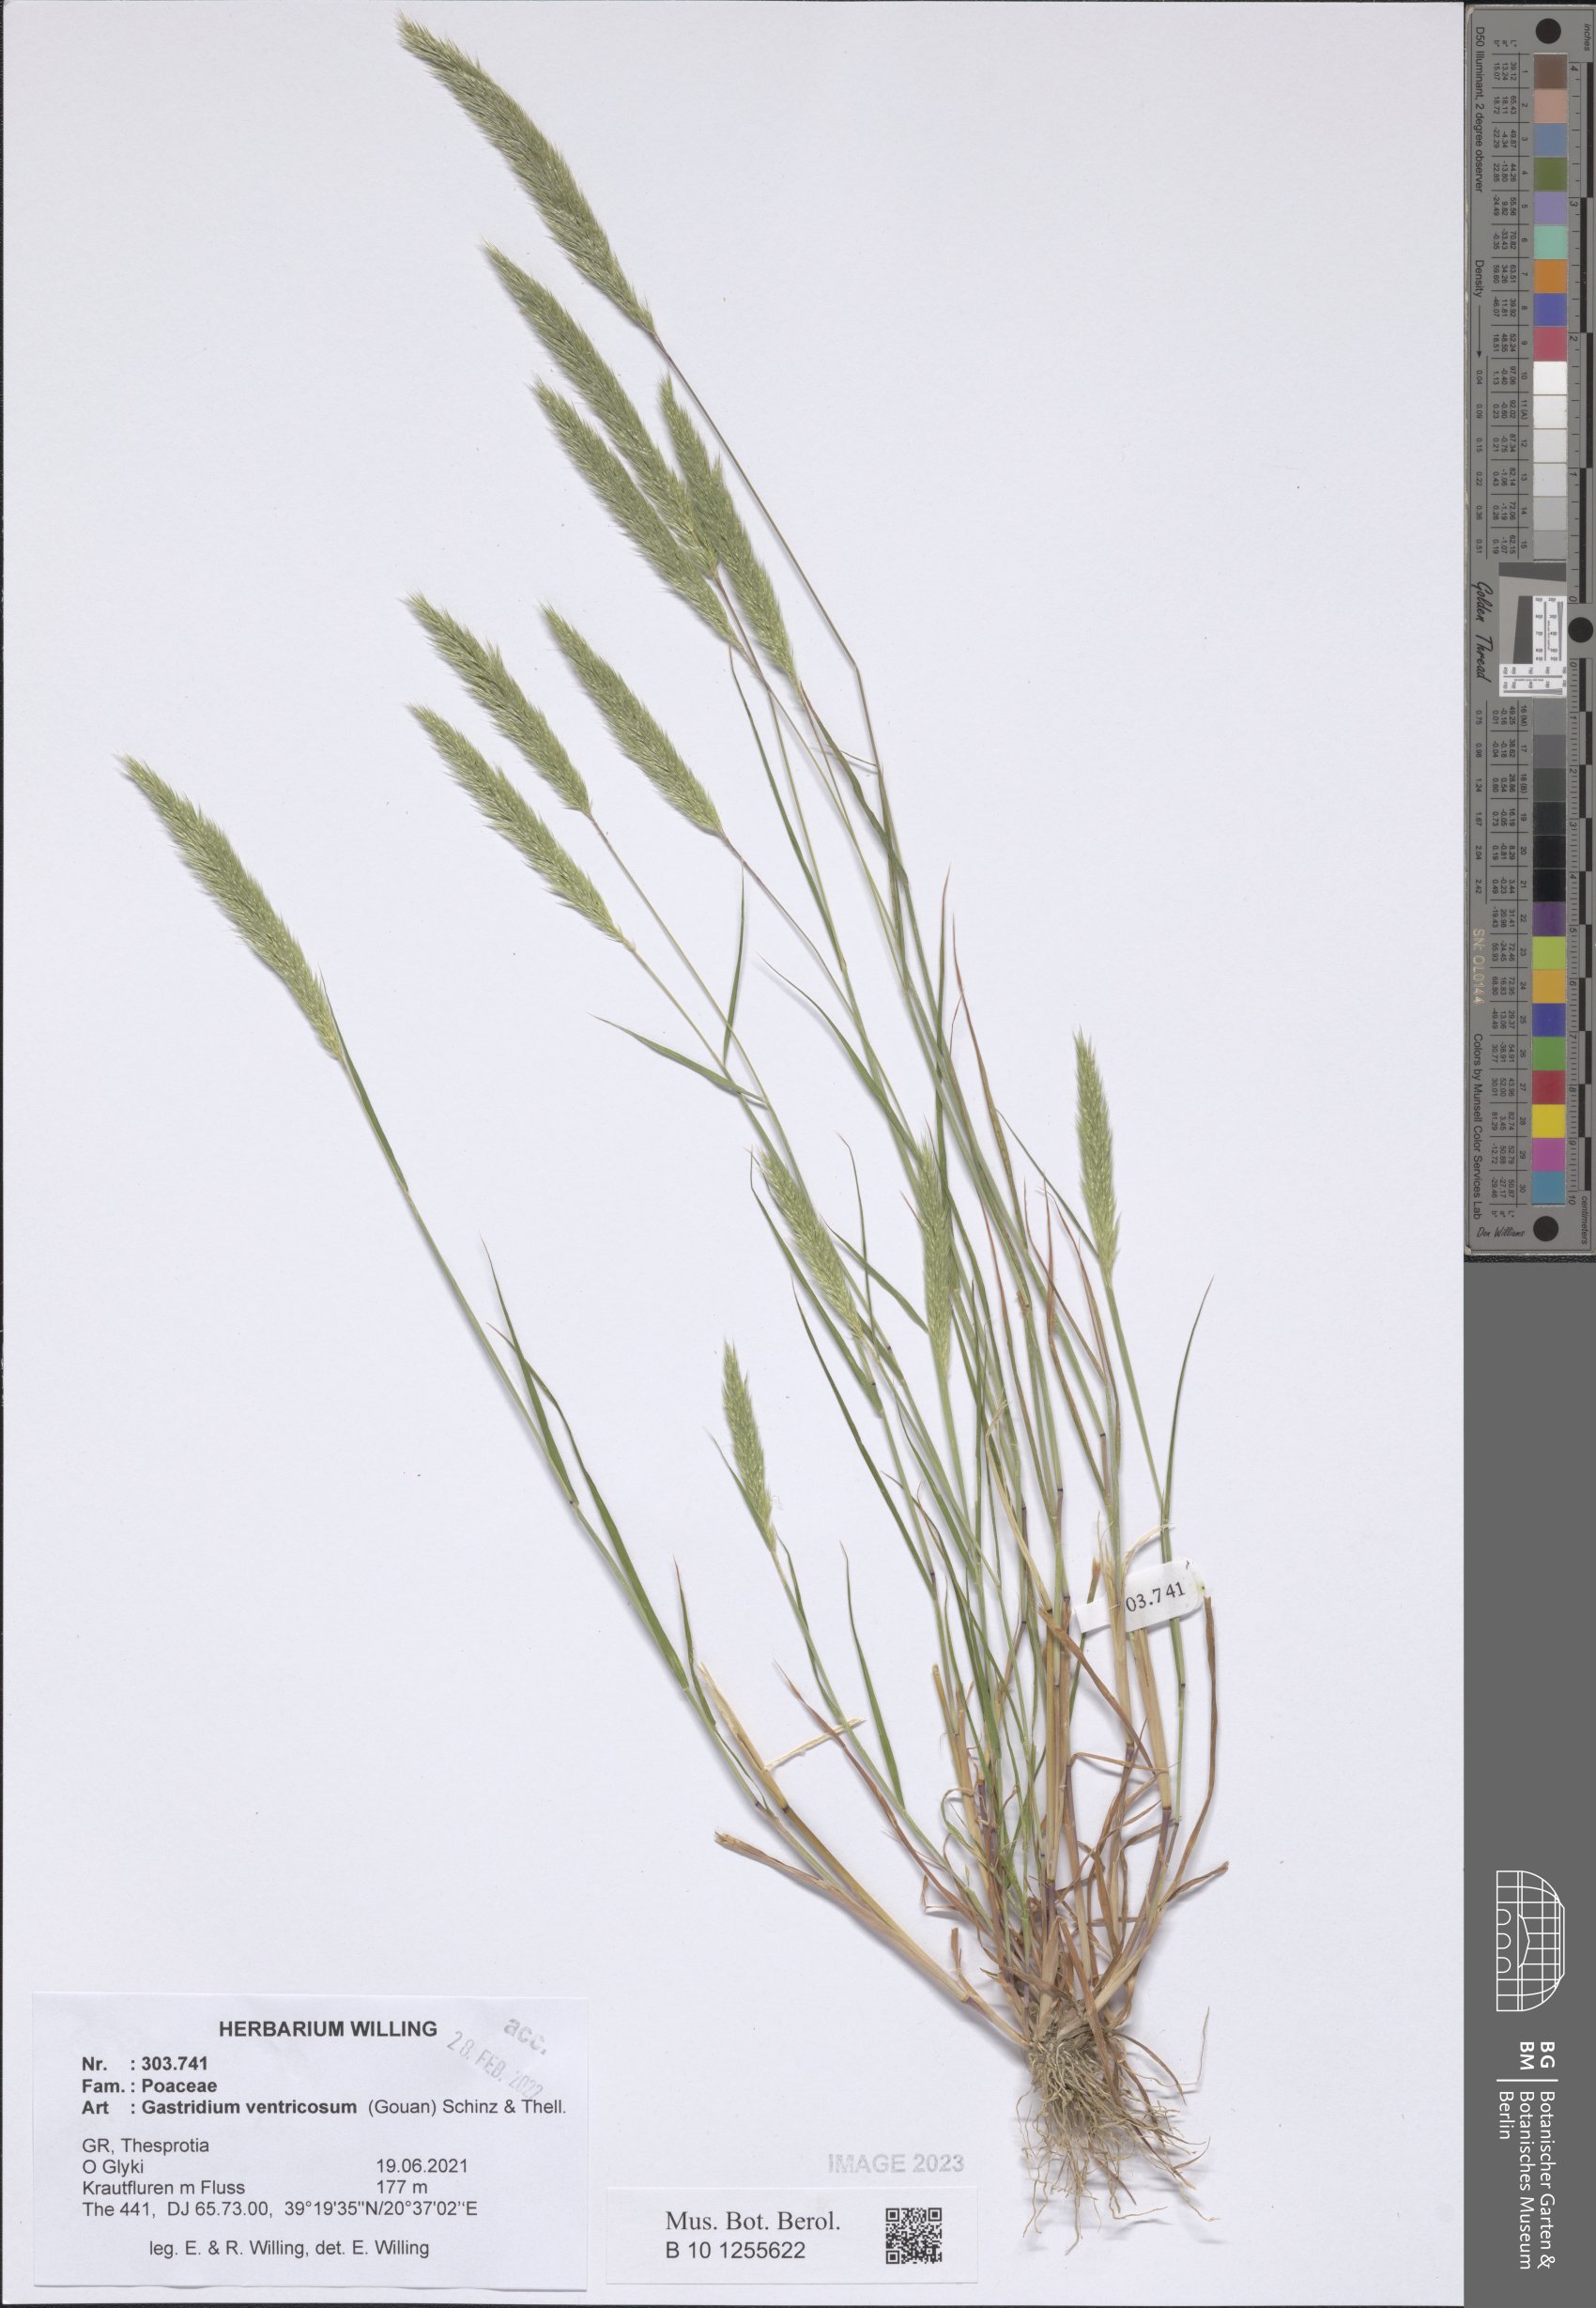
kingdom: Plantae
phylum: Tracheophyta
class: Liliopsida
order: Poales
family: Poaceae
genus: Gastridium
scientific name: Gastridium ventricosum
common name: Nit-grass
